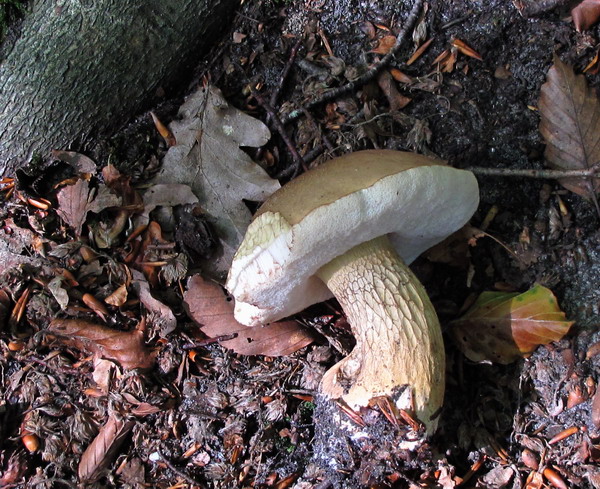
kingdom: Fungi
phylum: Basidiomycota
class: Agaricomycetes
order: Boletales
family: Boletaceae
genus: Tylopilus
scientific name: Tylopilus felleus
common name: galderørhat
